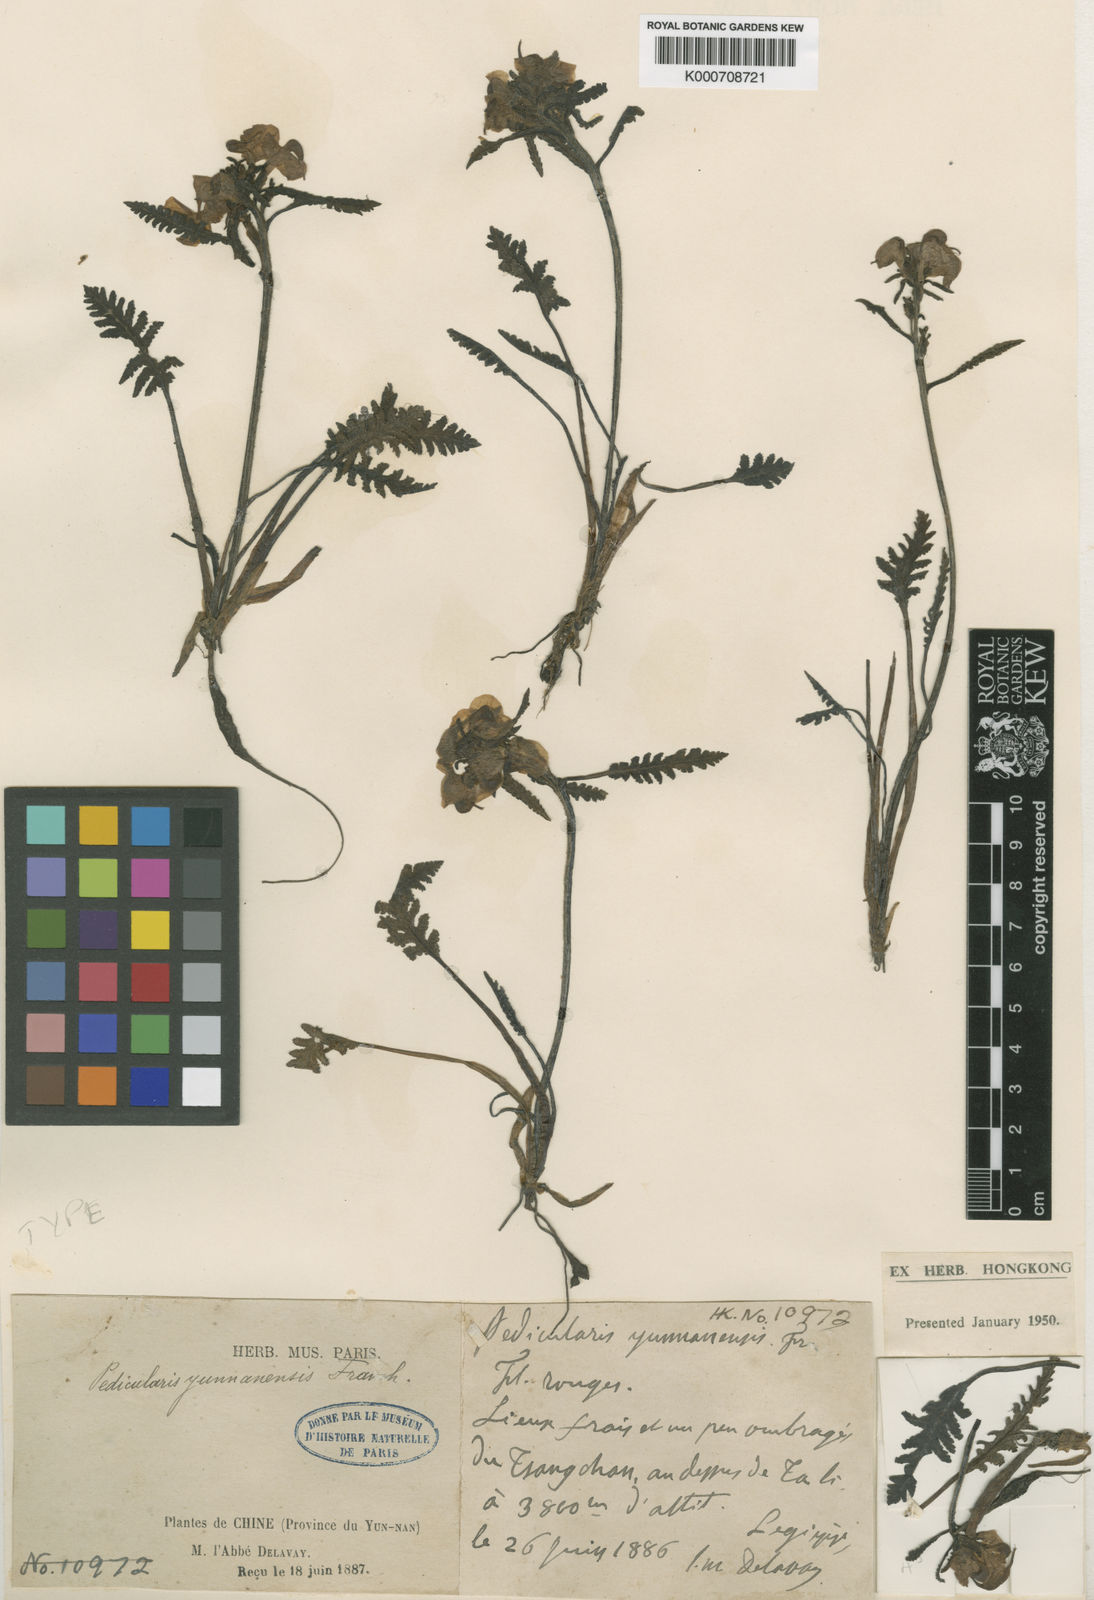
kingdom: Plantae
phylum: Tracheophyta
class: Magnoliopsida
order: Lamiales
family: Orobanchaceae
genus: Pedicularis
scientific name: Pedicularis yunnanensis
